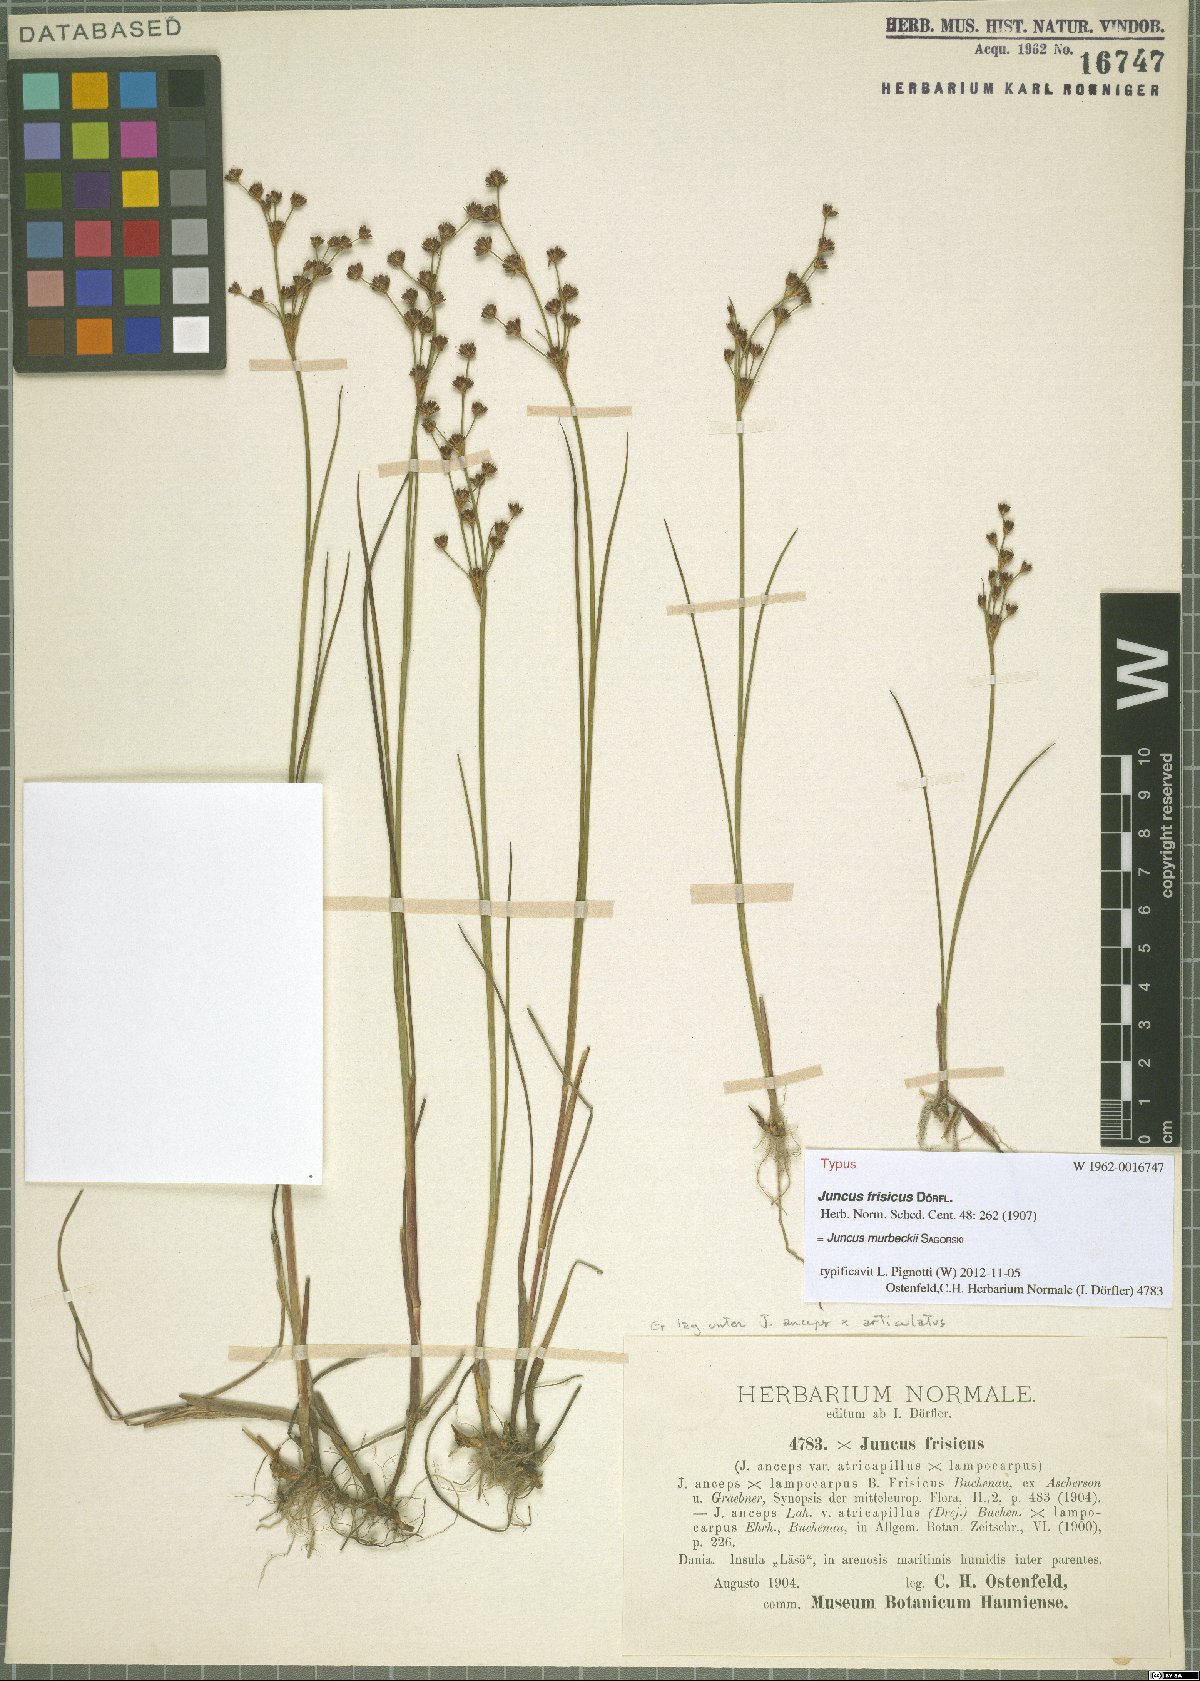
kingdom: Plantae
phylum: Tracheophyta
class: Liliopsida
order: Poales
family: Juncaceae
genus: Juncus
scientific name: Juncus murbeckii
